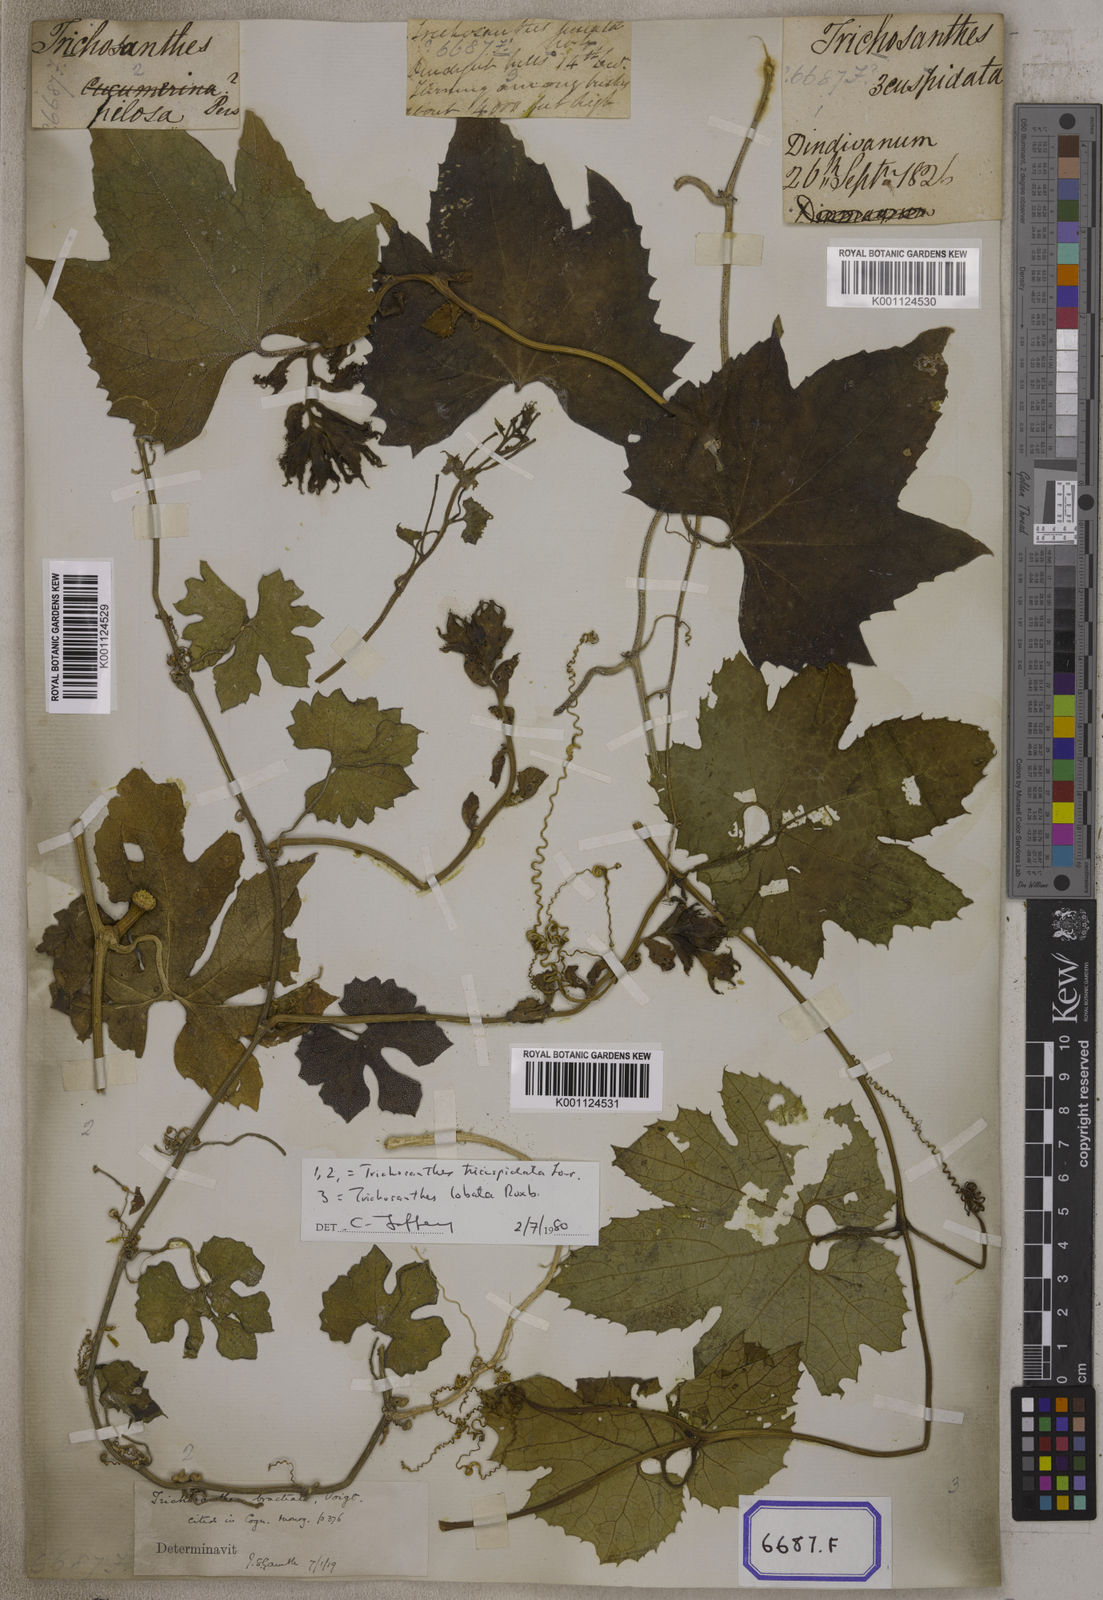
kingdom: Plantae
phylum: Tracheophyta
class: Magnoliopsida
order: Cucurbitales
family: Cucurbitaceae
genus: Trichosanthes
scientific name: Trichosanthes cucumerina
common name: Snakegourd
